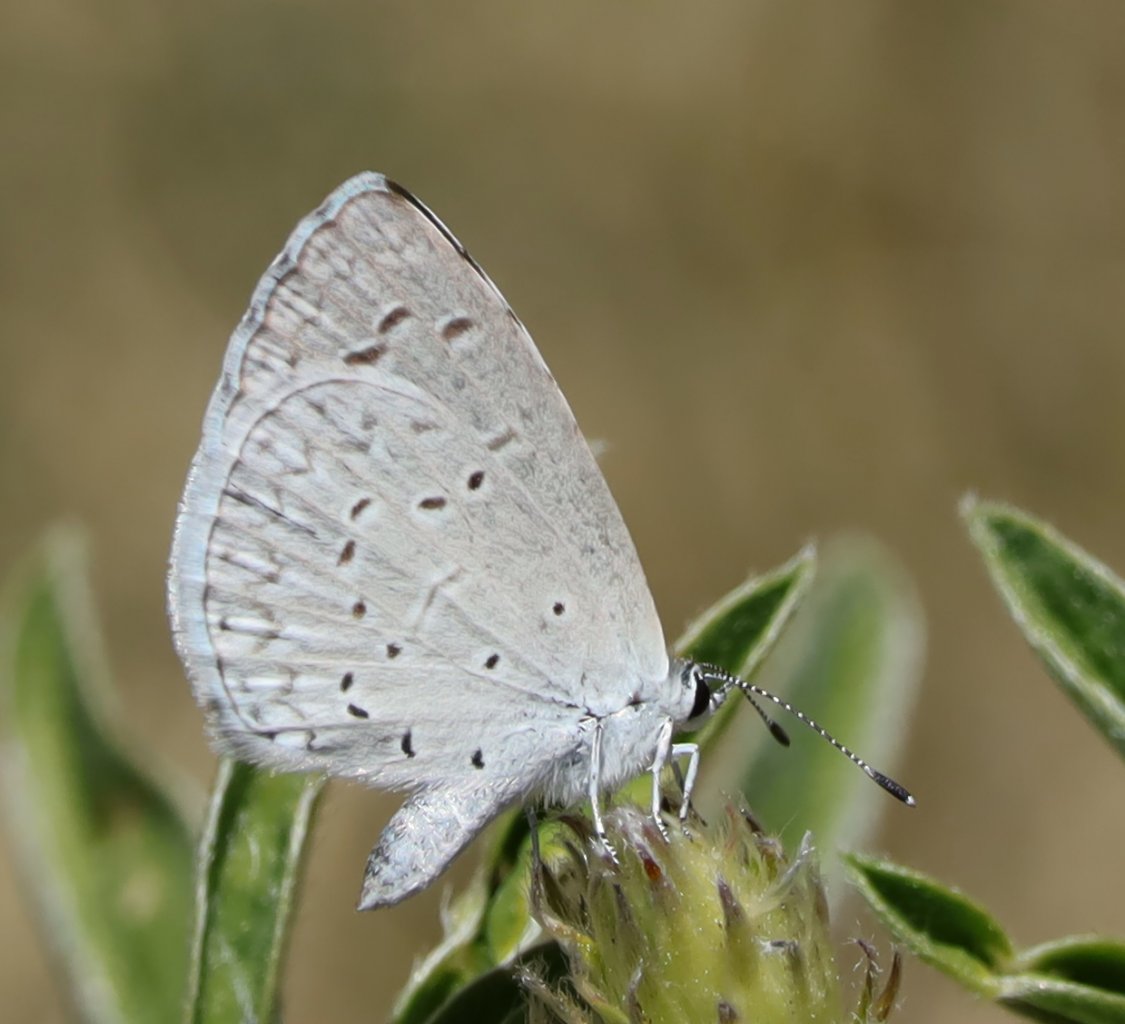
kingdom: Animalia
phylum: Arthropoda
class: Insecta
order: Lepidoptera
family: Lycaenidae
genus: Celastrina
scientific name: Celastrina ladon
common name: Echo Azure
